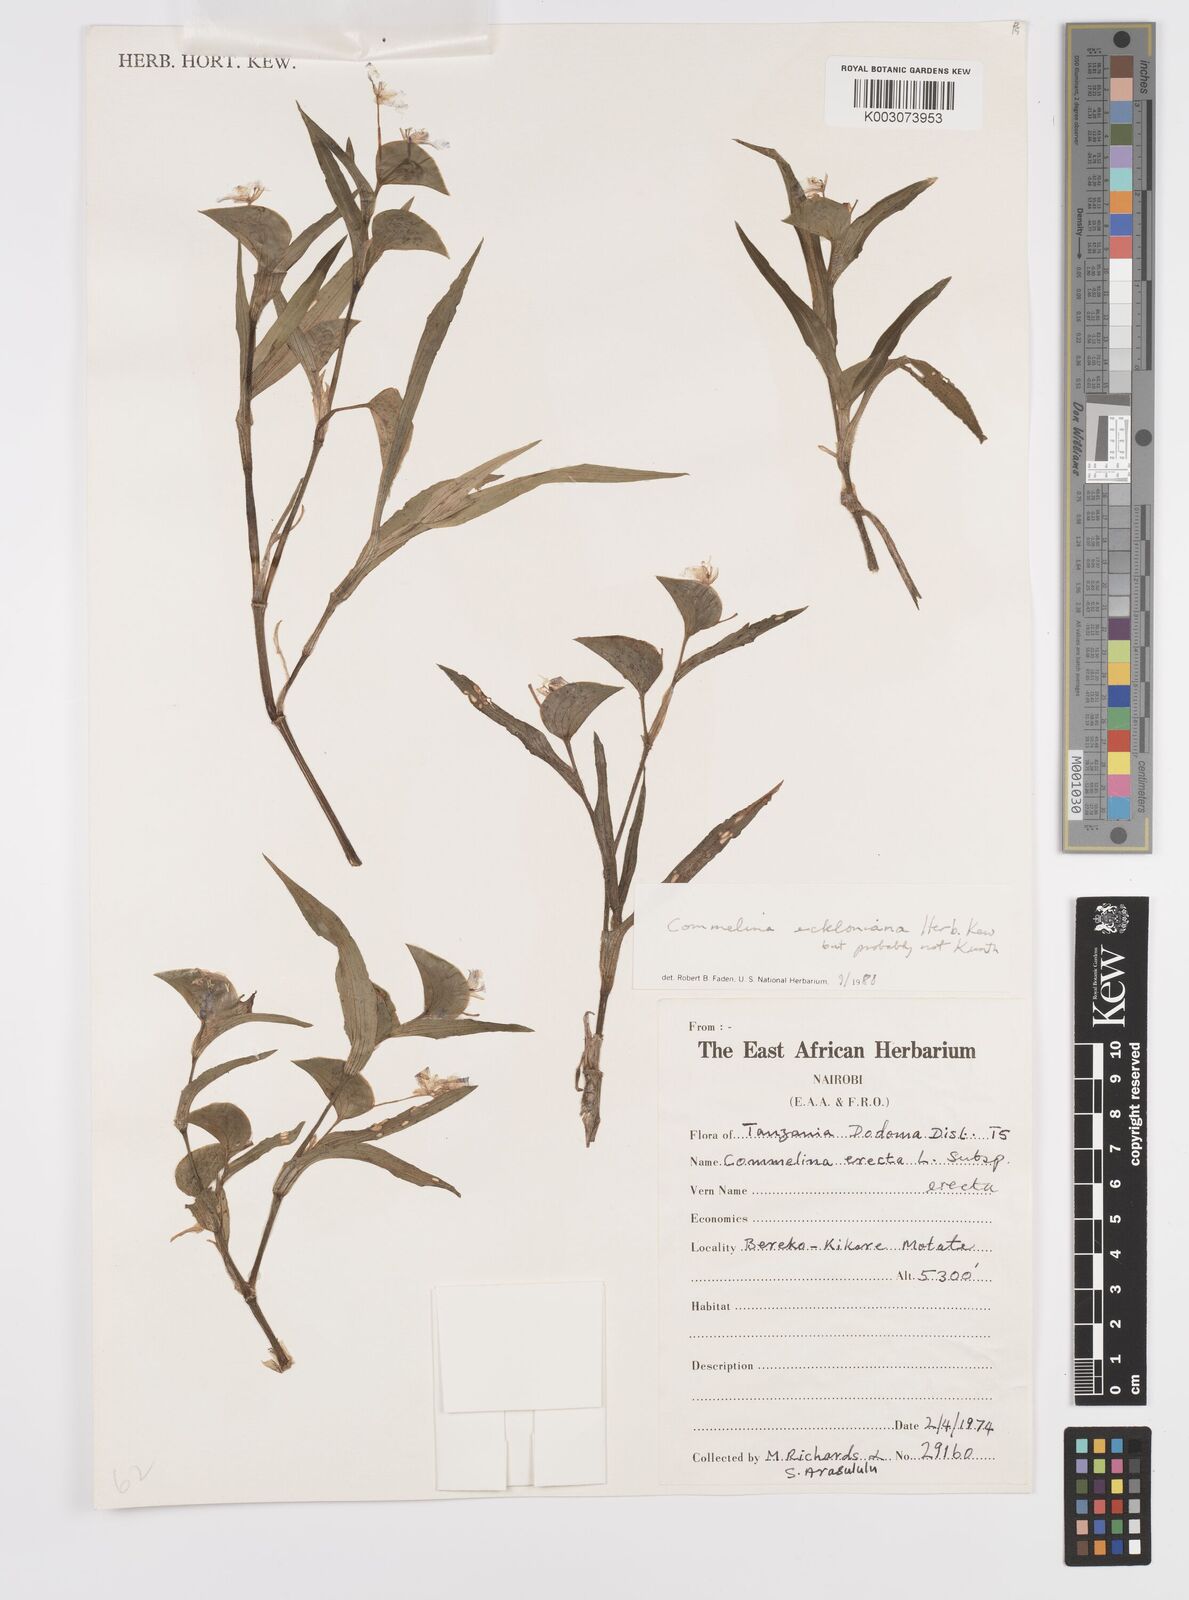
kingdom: Plantae
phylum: Tracheophyta
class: Liliopsida
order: Commelinales
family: Commelinaceae
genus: Commelina
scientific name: Commelina eckloniana
